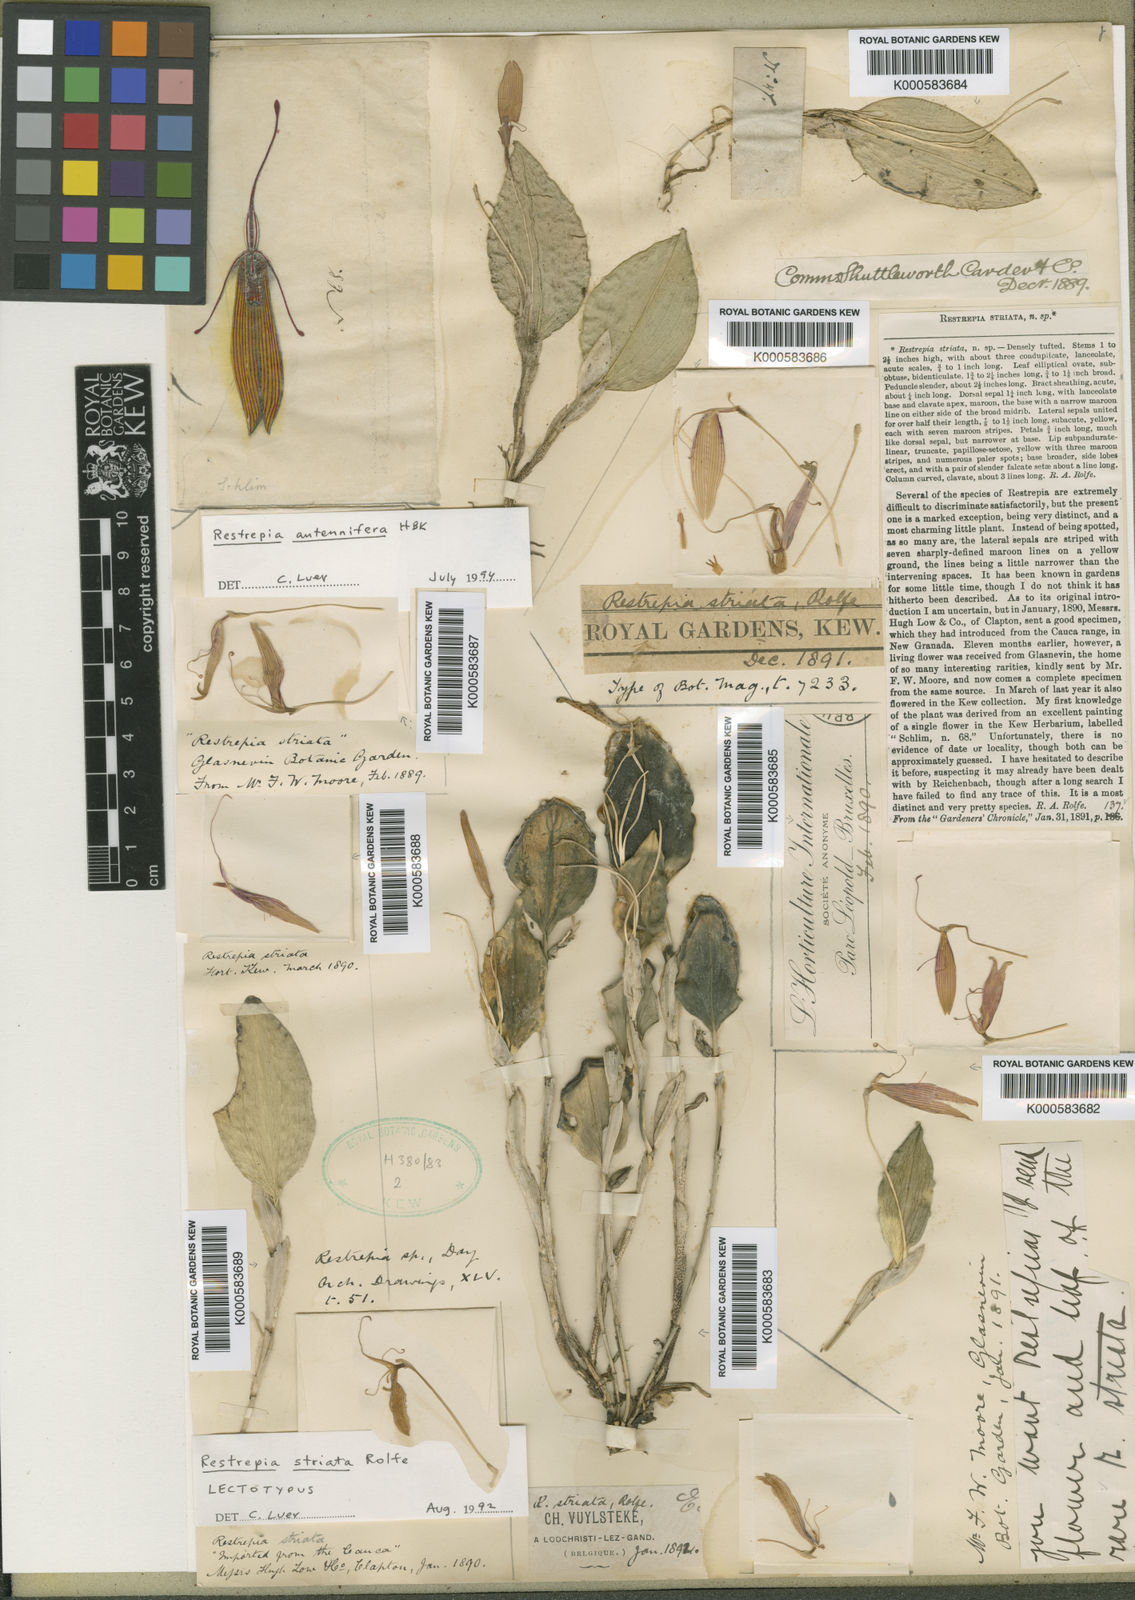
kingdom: Plantae
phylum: Tracheophyta
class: Liliopsida
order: Asparagales
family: Orchidaceae
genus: Restrepia
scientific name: Restrepia brachypus
